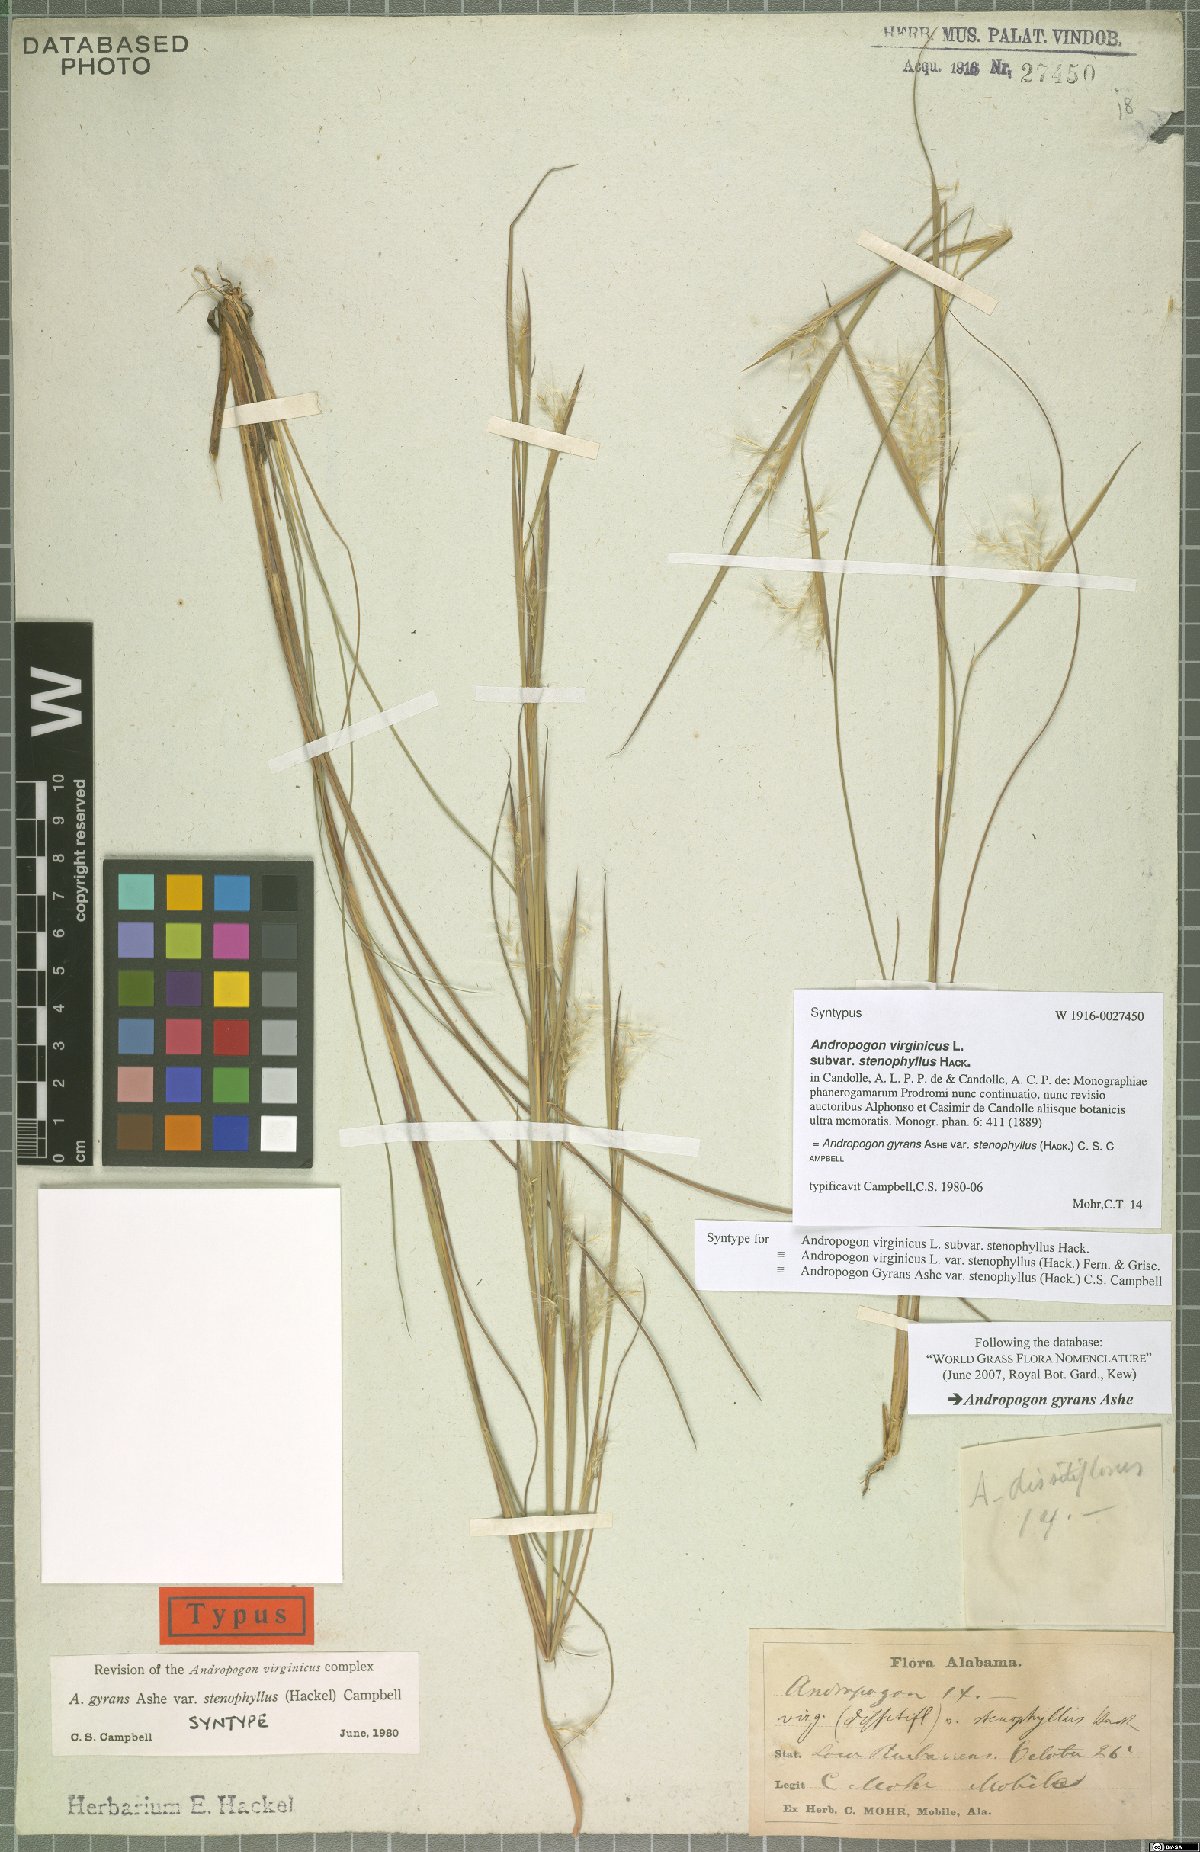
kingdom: Plantae
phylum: Tracheophyta
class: Liliopsida
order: Poales
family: Poaceae
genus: Andropogon
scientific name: Andropogon perangustatus
